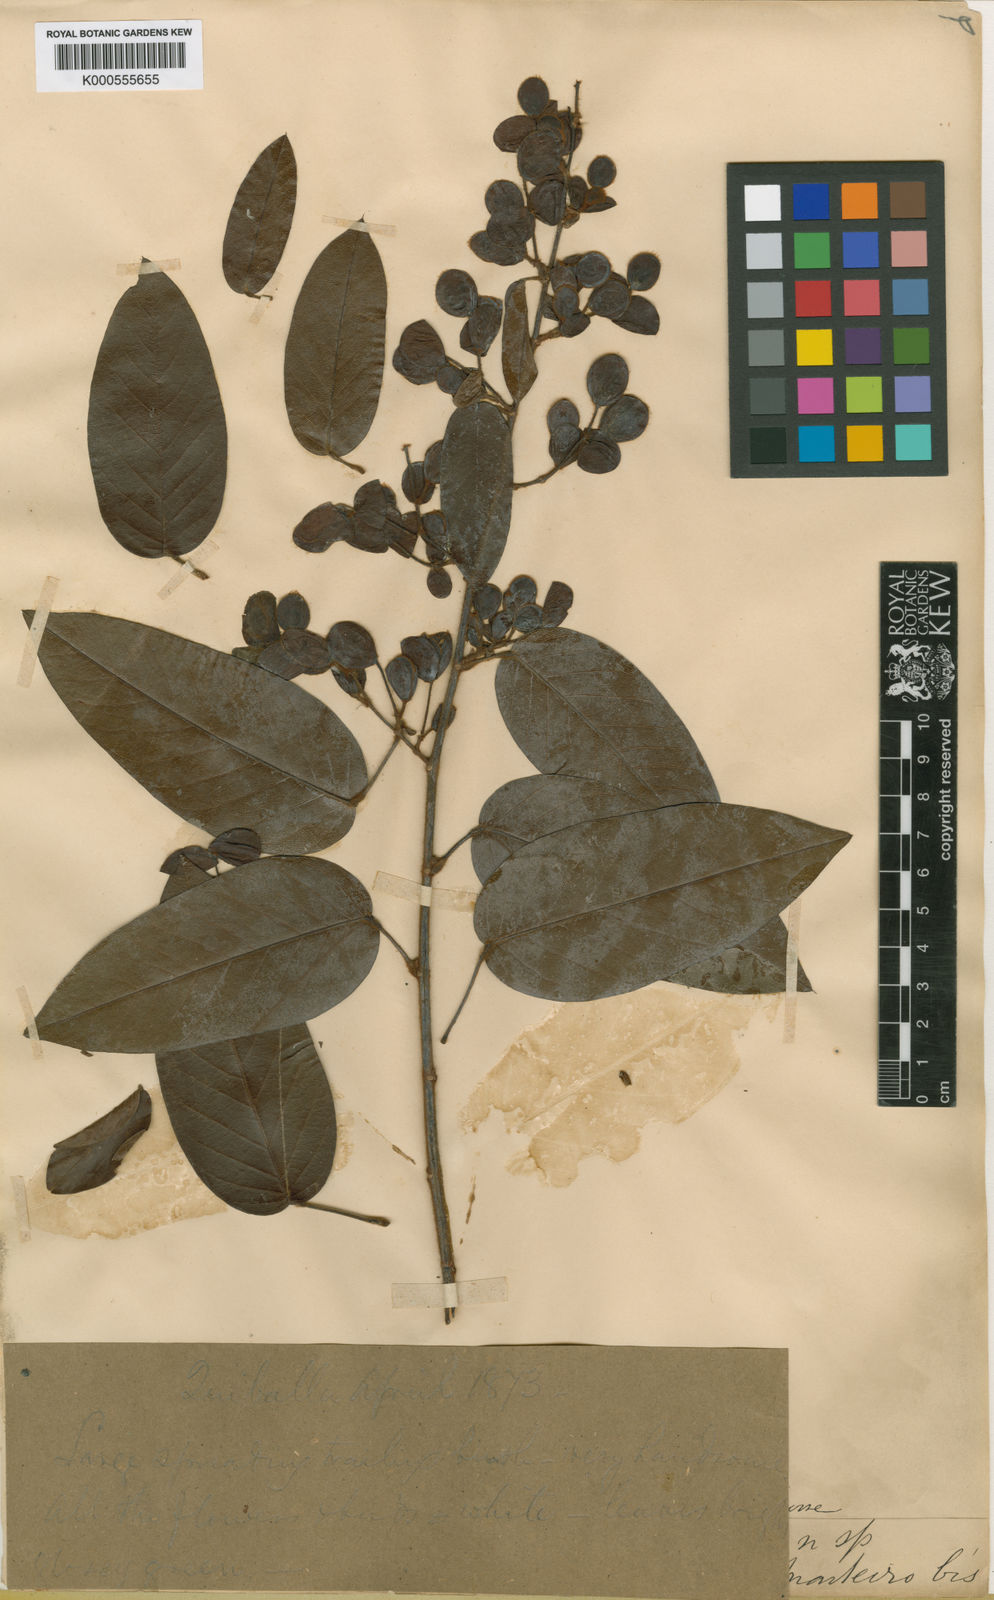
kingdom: Plantae
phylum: Tracheophyta
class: Magnoliopsida
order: Fabales
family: Fabaceae
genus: Dalhousiea
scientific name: Dalhousiea africana
